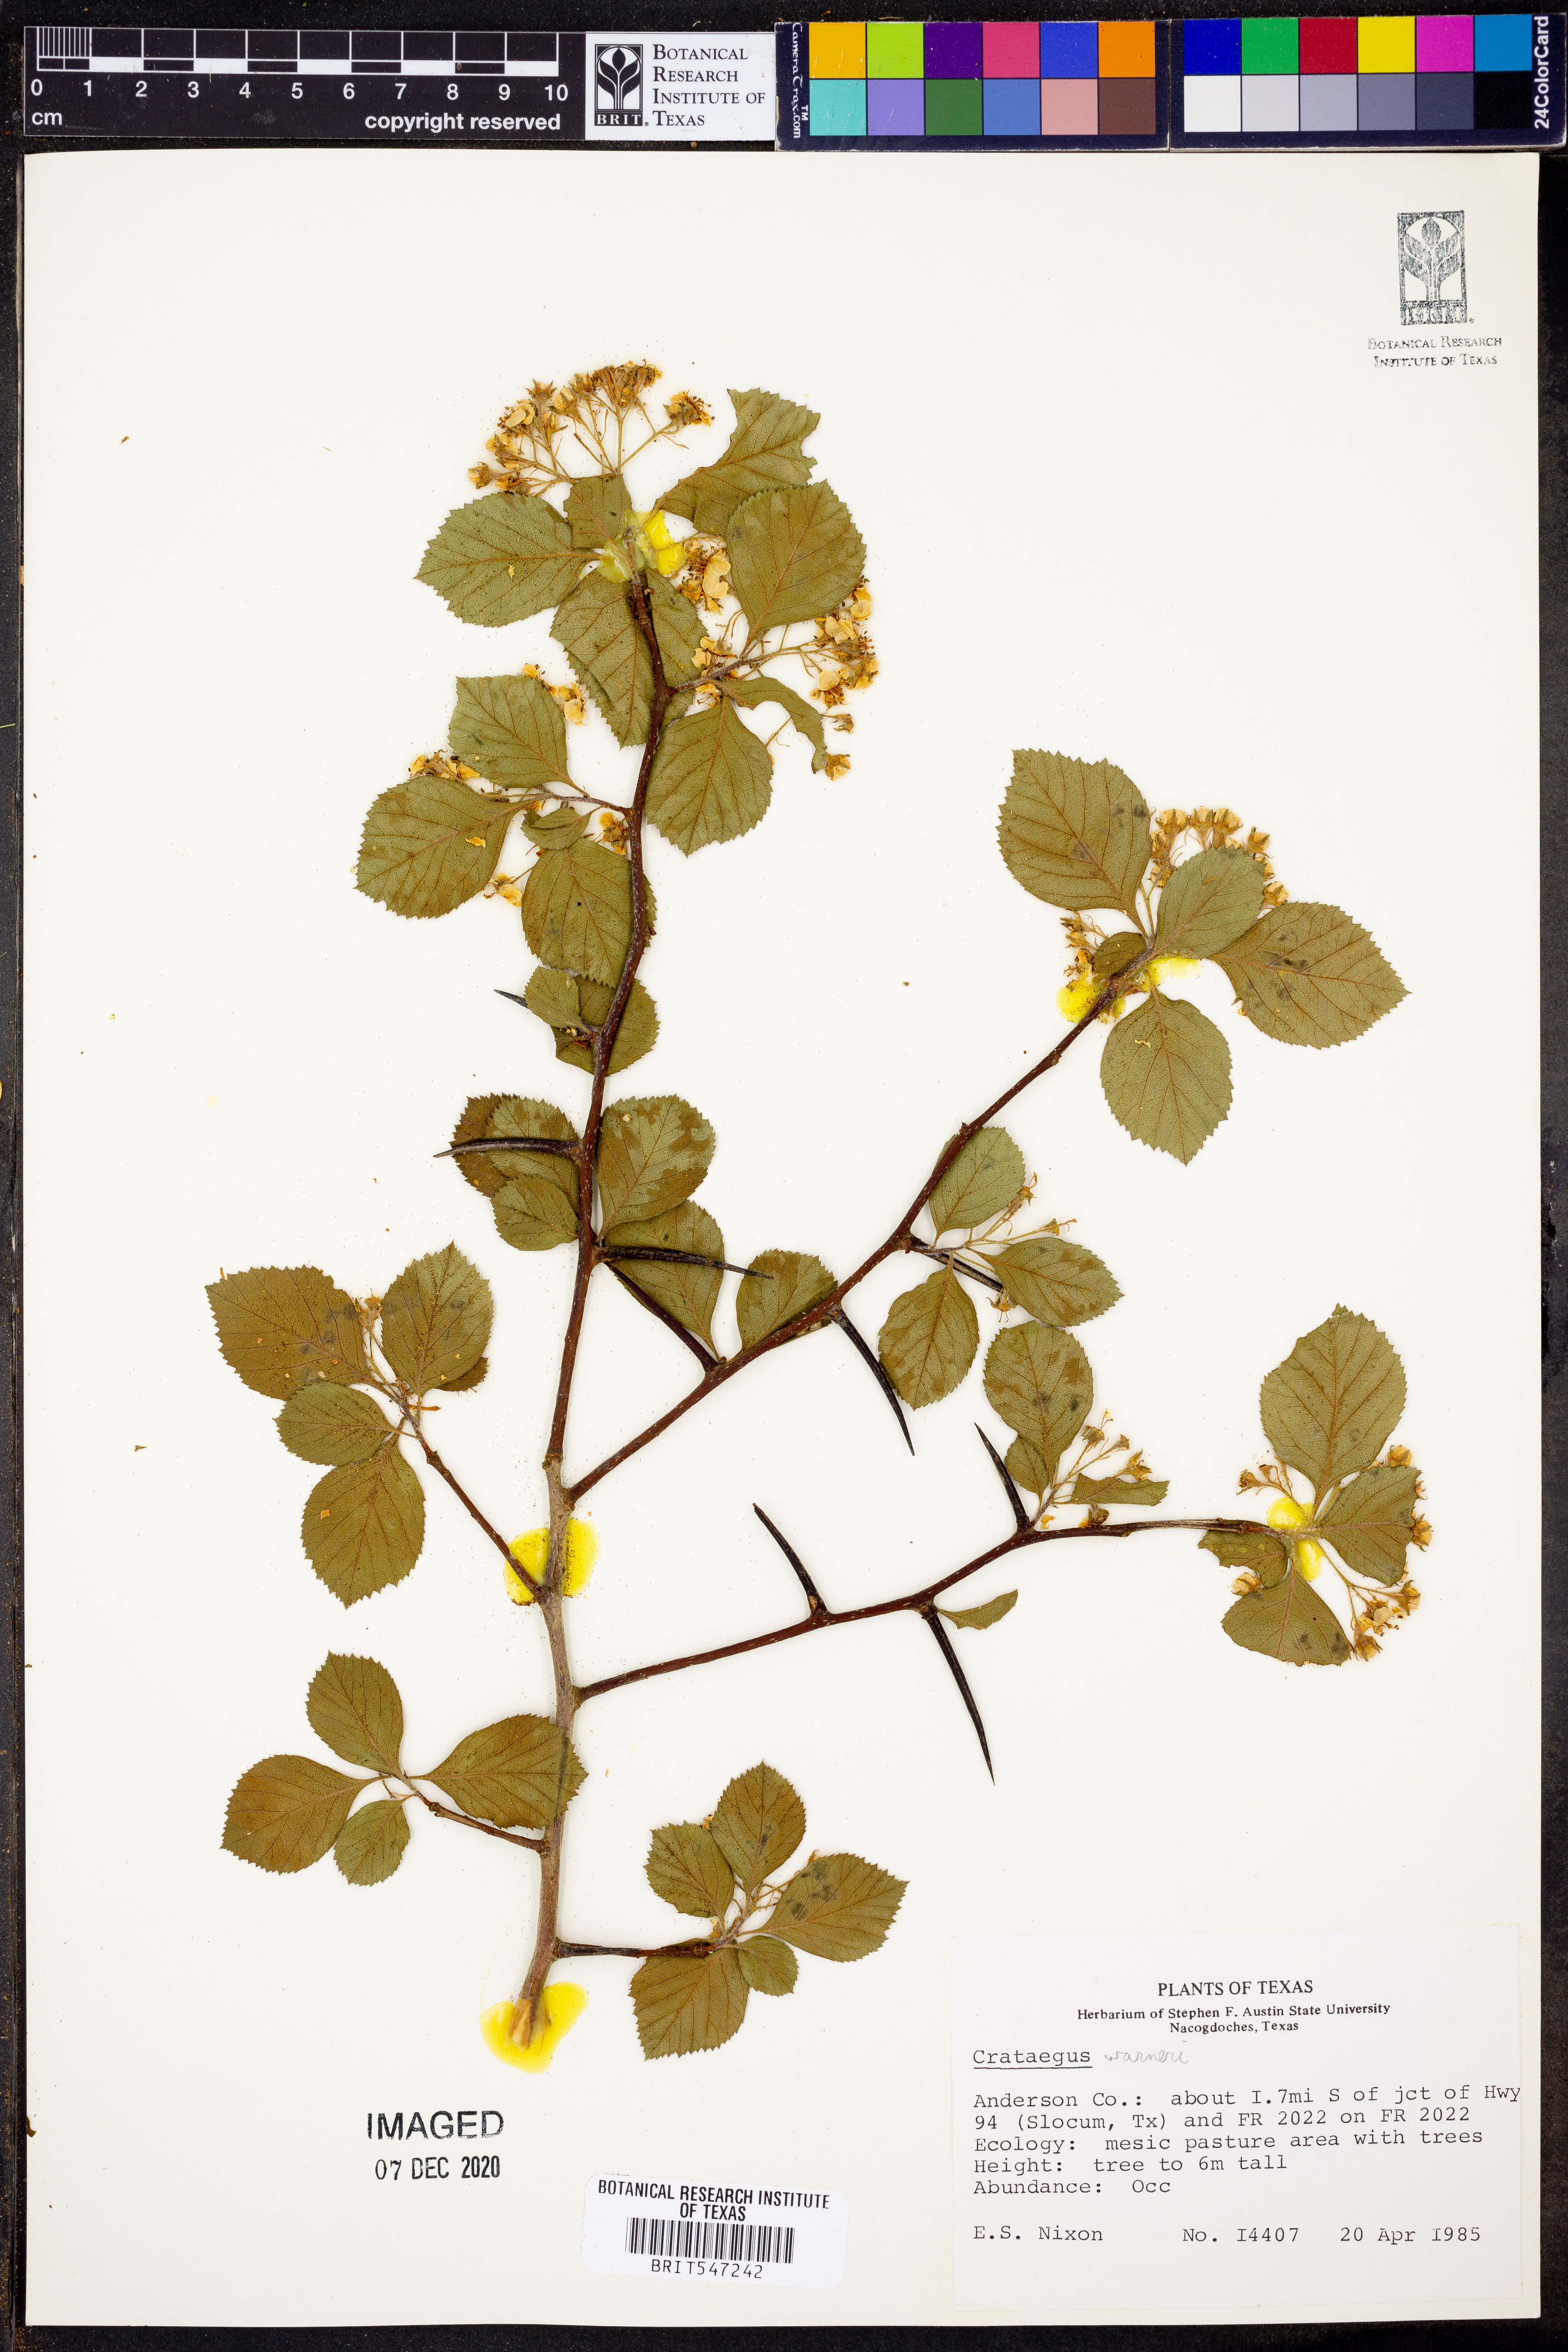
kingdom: Plantae
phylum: Tracheophyta
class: Magnoliopsida
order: Rosales
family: Rosaceae
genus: Crataegus
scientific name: Crataegus warneri
